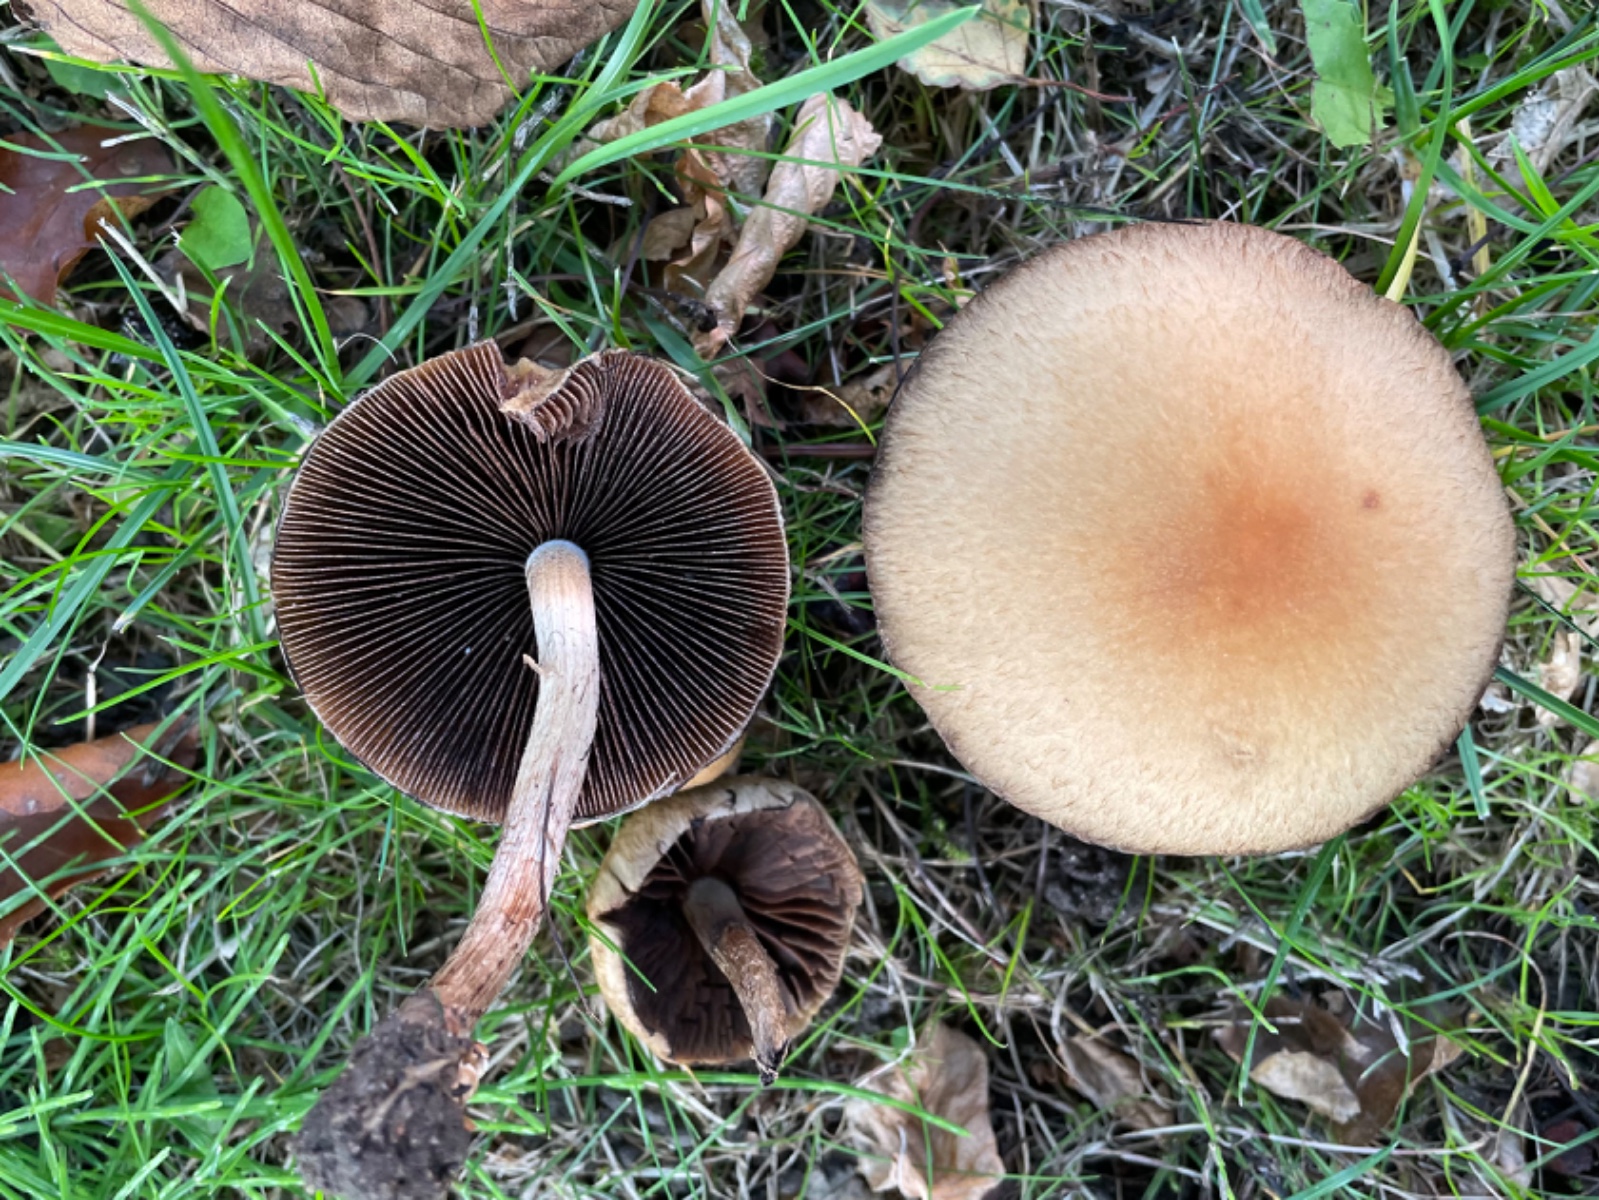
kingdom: Fungi
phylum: Basidiomycota
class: Agaricomycetes
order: Agaricales
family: Psathyrellaceae
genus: Lacrymaria
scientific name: Lacrymaria lacrymabunda
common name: grædende mørkhat
